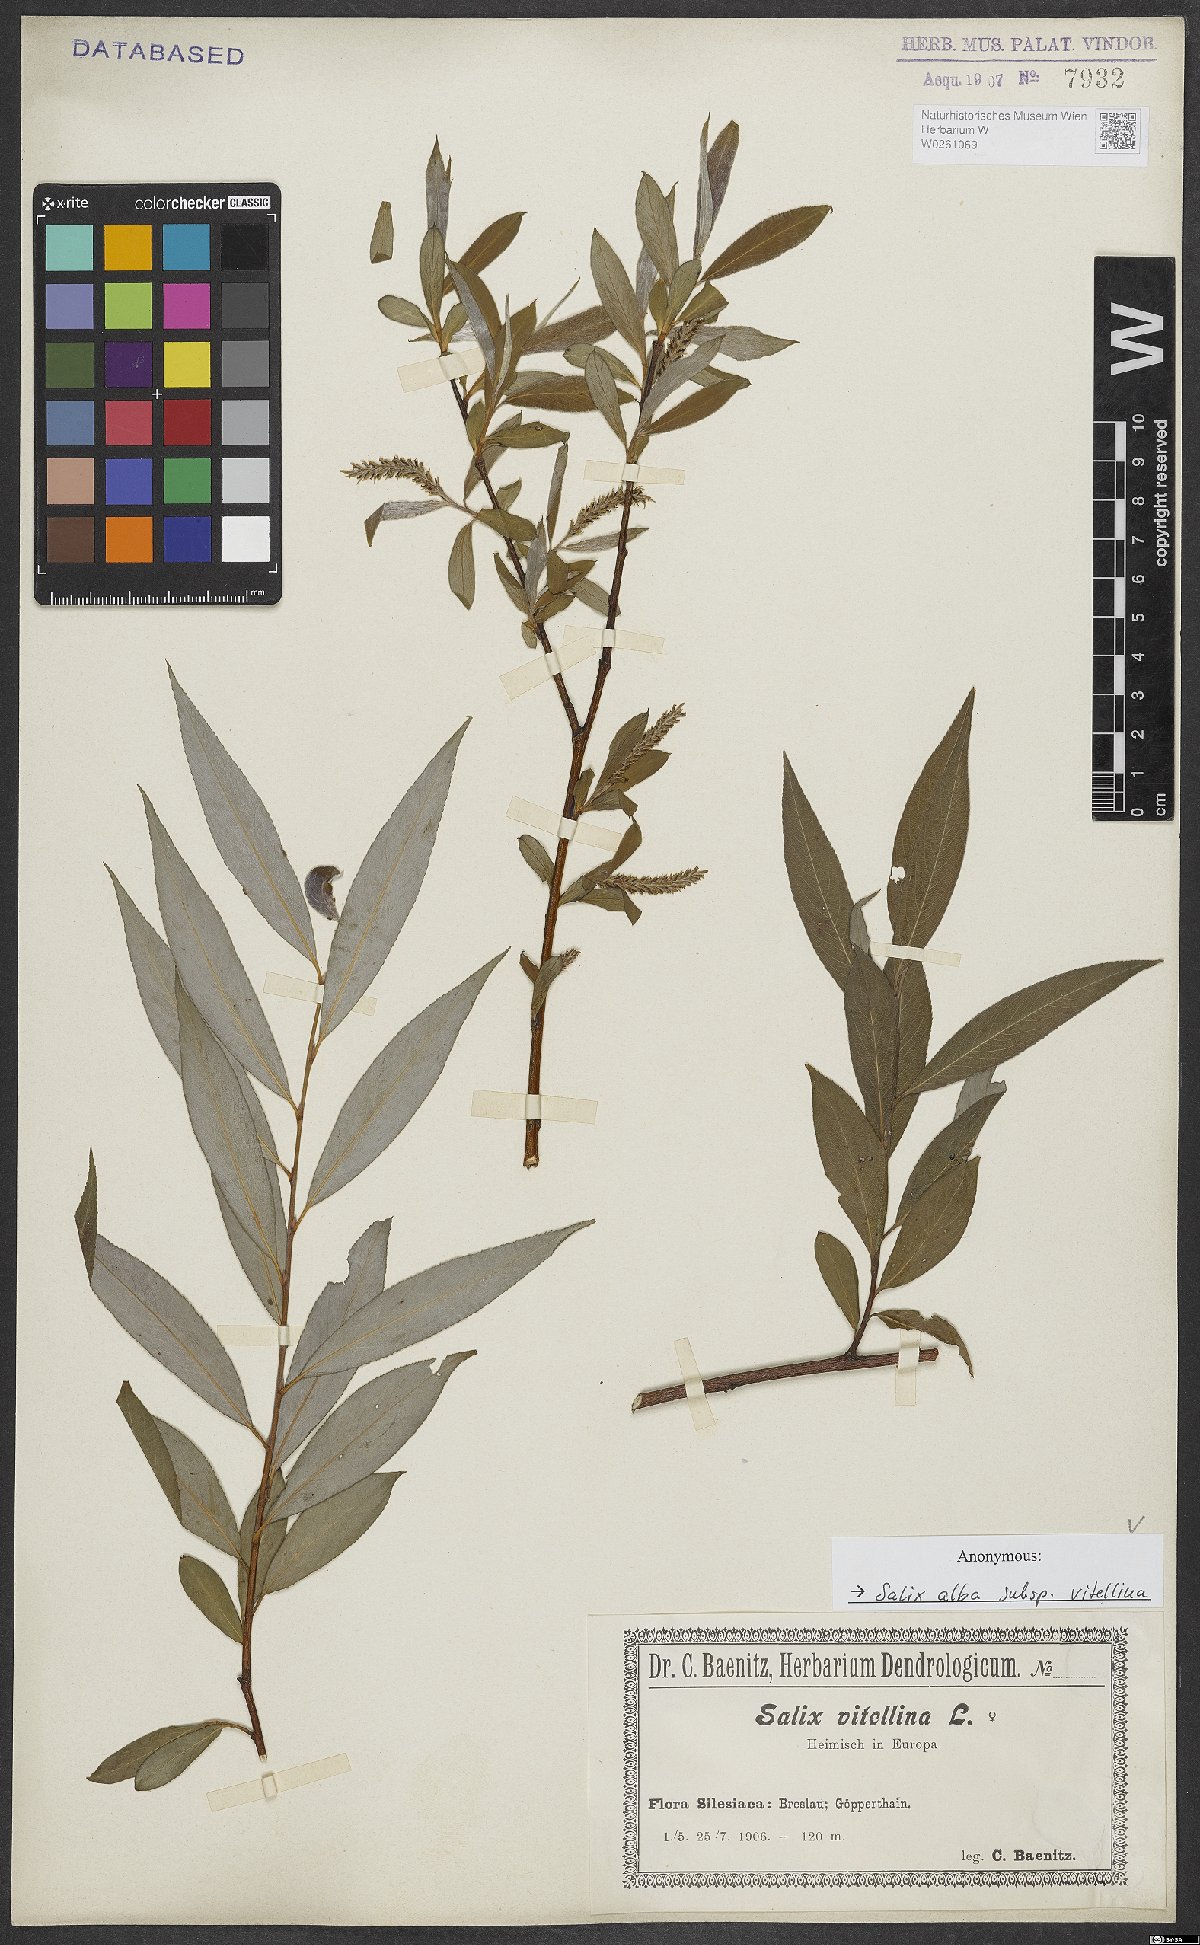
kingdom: Plantae
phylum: Tracheophyta
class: Magnoliopsida
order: Malpighiales
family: Salicaceae
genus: Salix
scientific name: Salix alba
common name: White willow
